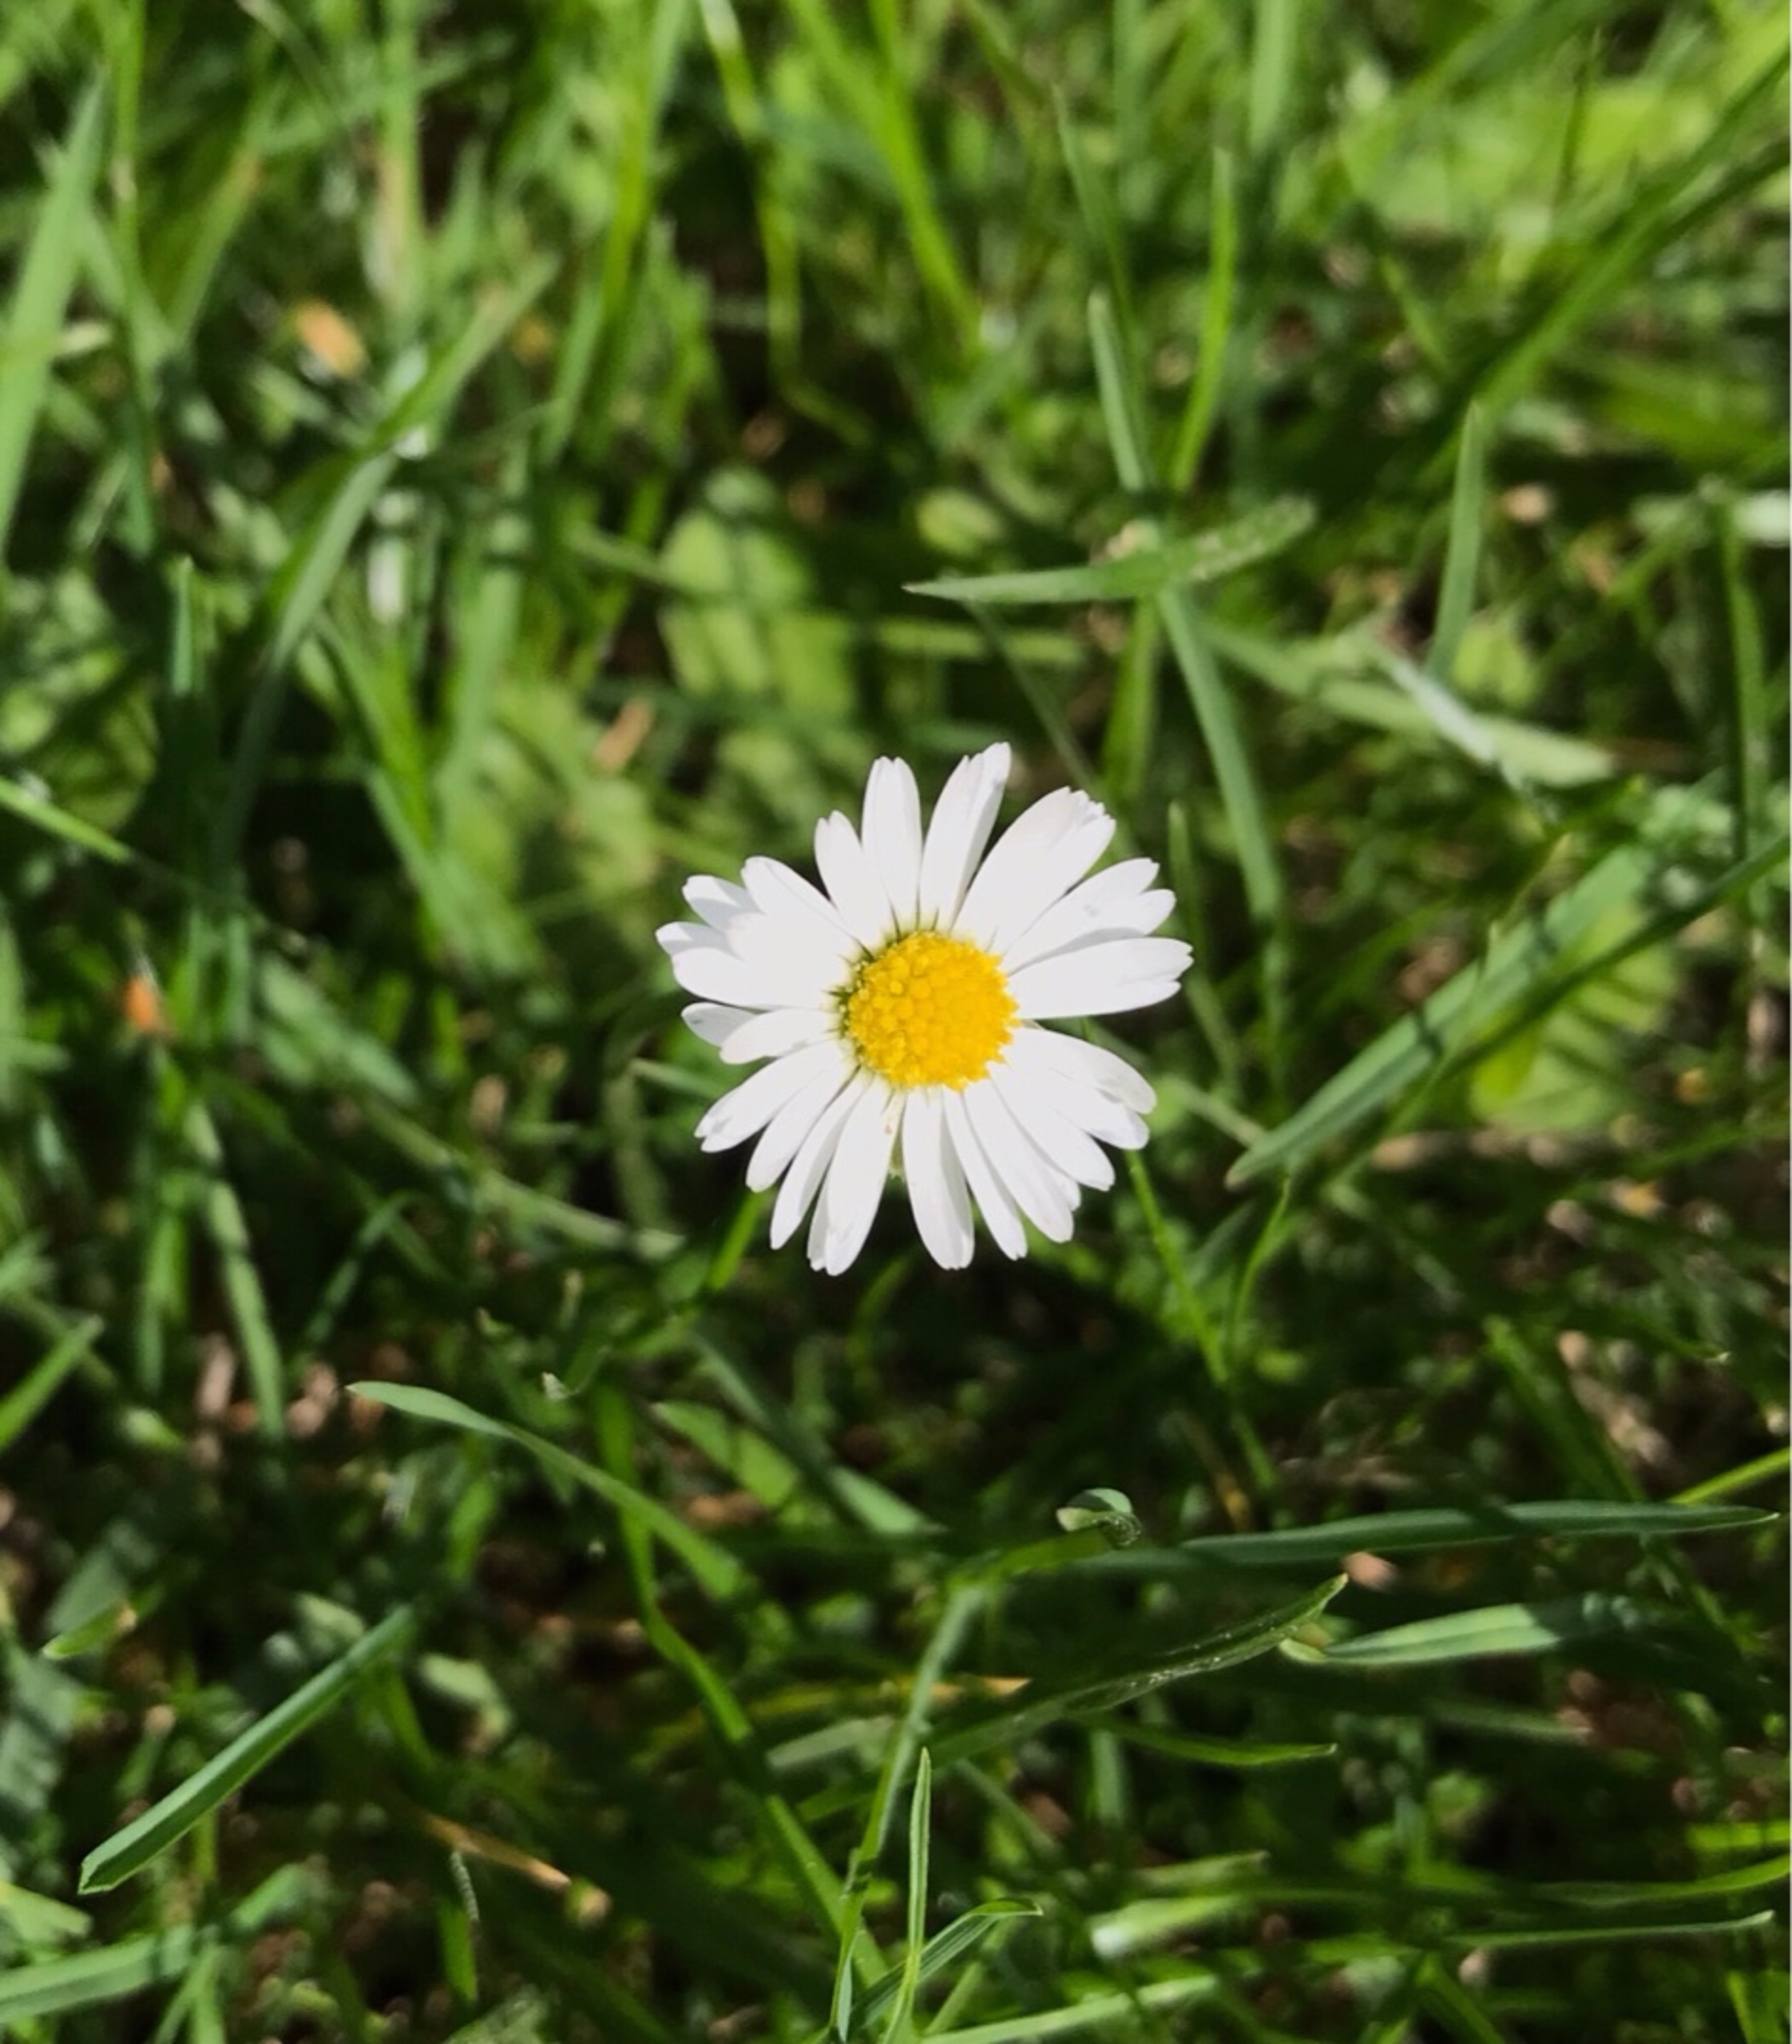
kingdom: Plantae
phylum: Tracheophyta
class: Magnoliopsida
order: Asterales
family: Asteraceae
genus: Bellis
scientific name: Bellis perennis
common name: Tusindfryd
